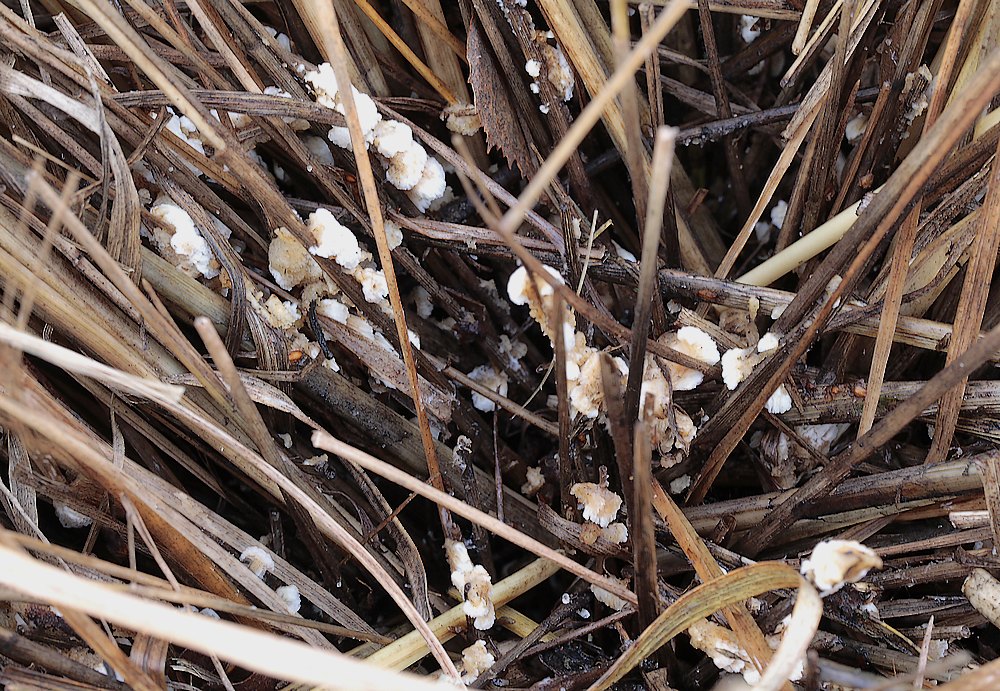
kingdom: Fungi
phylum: Basidiomycota
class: Agaricomycetes
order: Polyporales
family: Meripilaceae
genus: Rigidoporus
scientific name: Rigidoporus sanguinolentus
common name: blod-skorpeporesvamp
